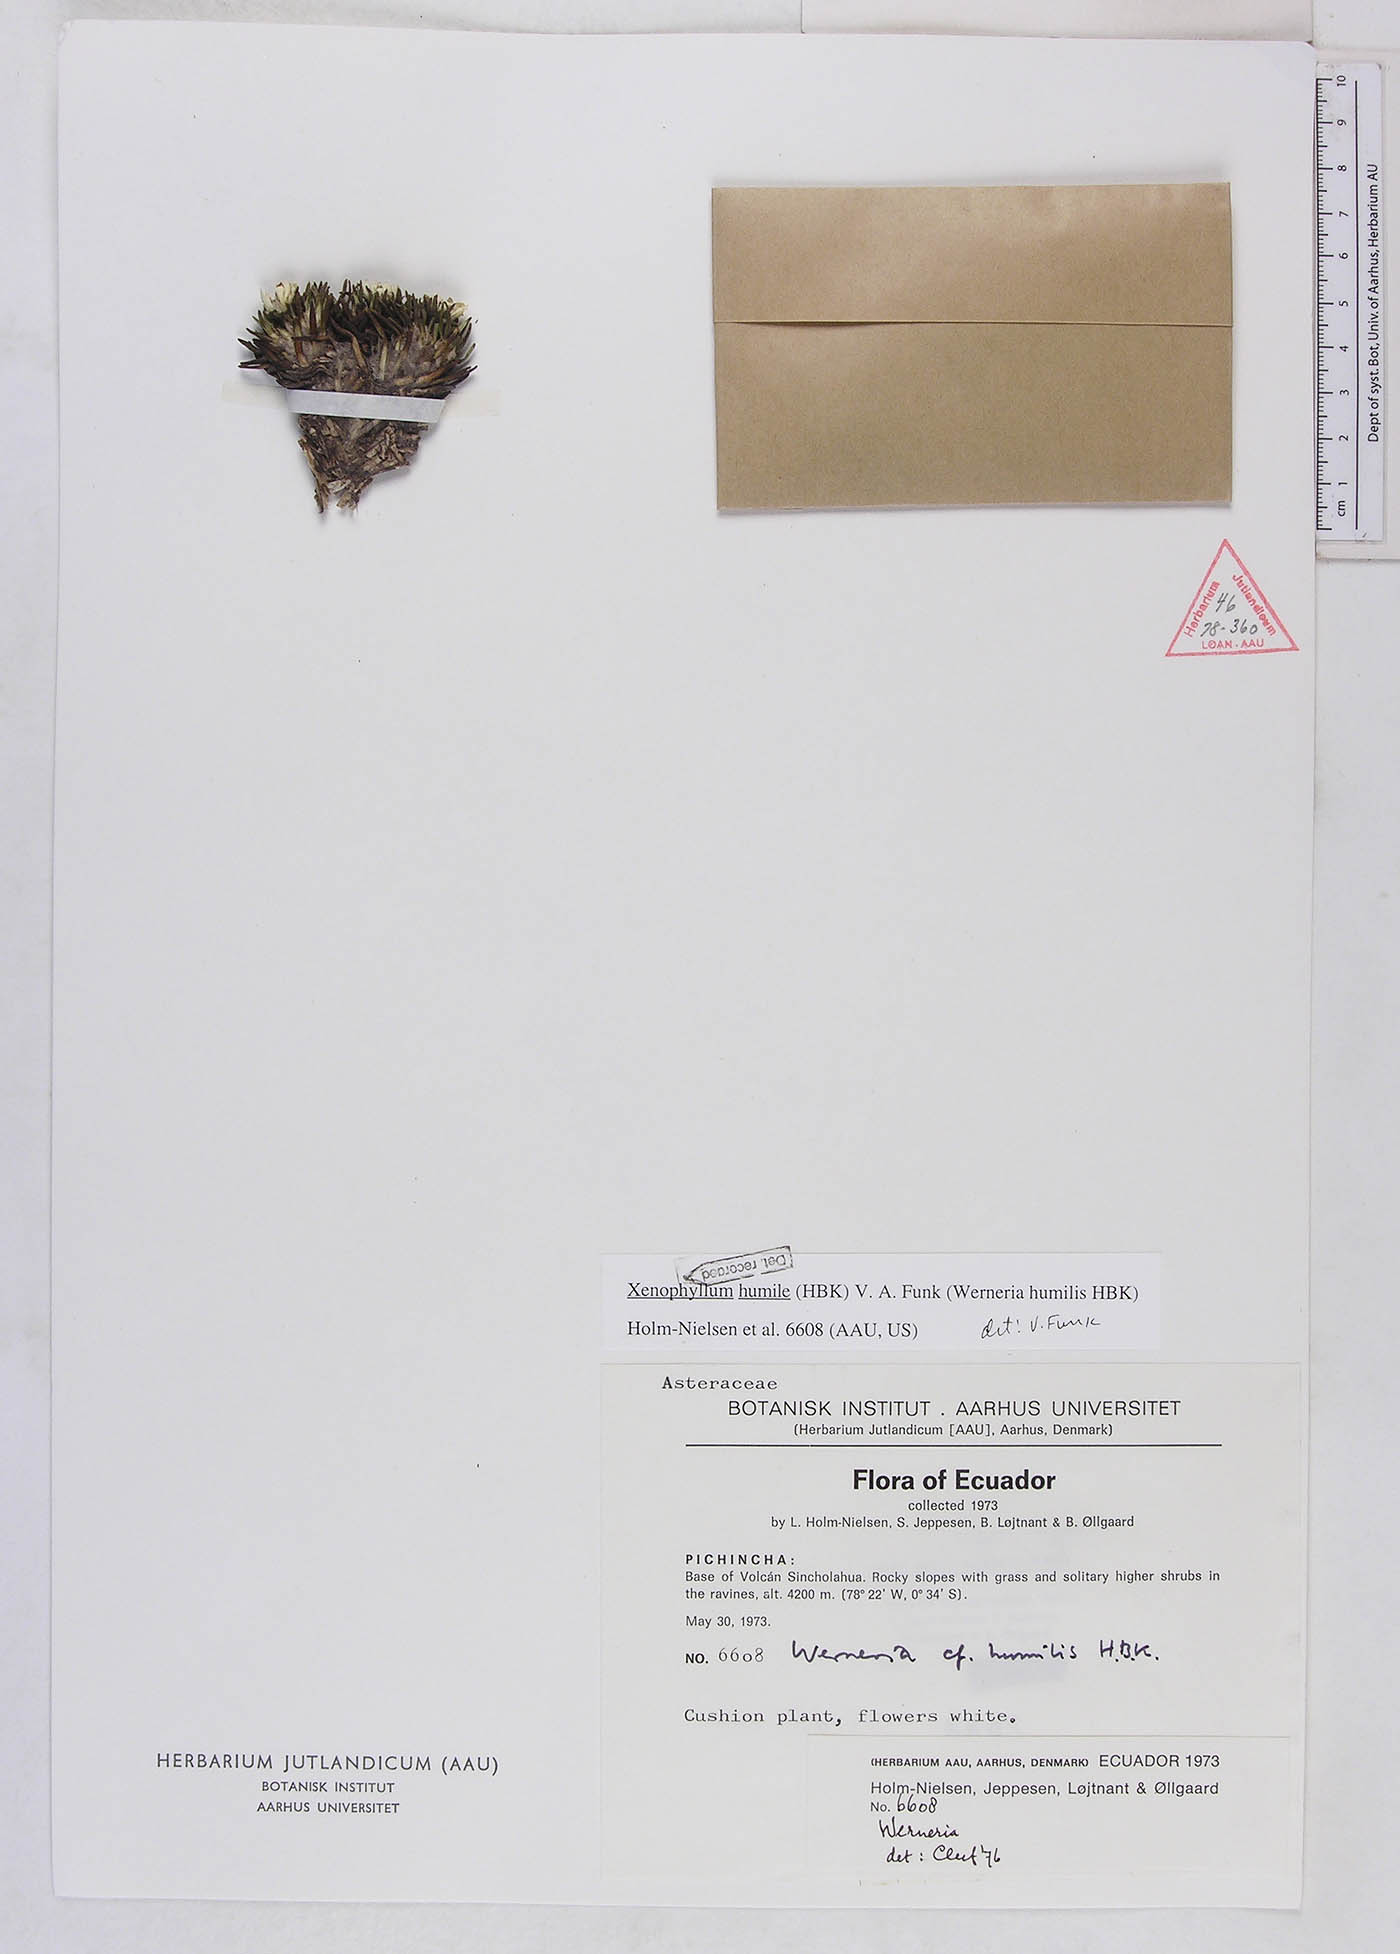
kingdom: Plantae
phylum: Tracheophyta
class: Magnoliopsida
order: Asterales
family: Asteraceae
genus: Werneria
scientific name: Werneria humilis
